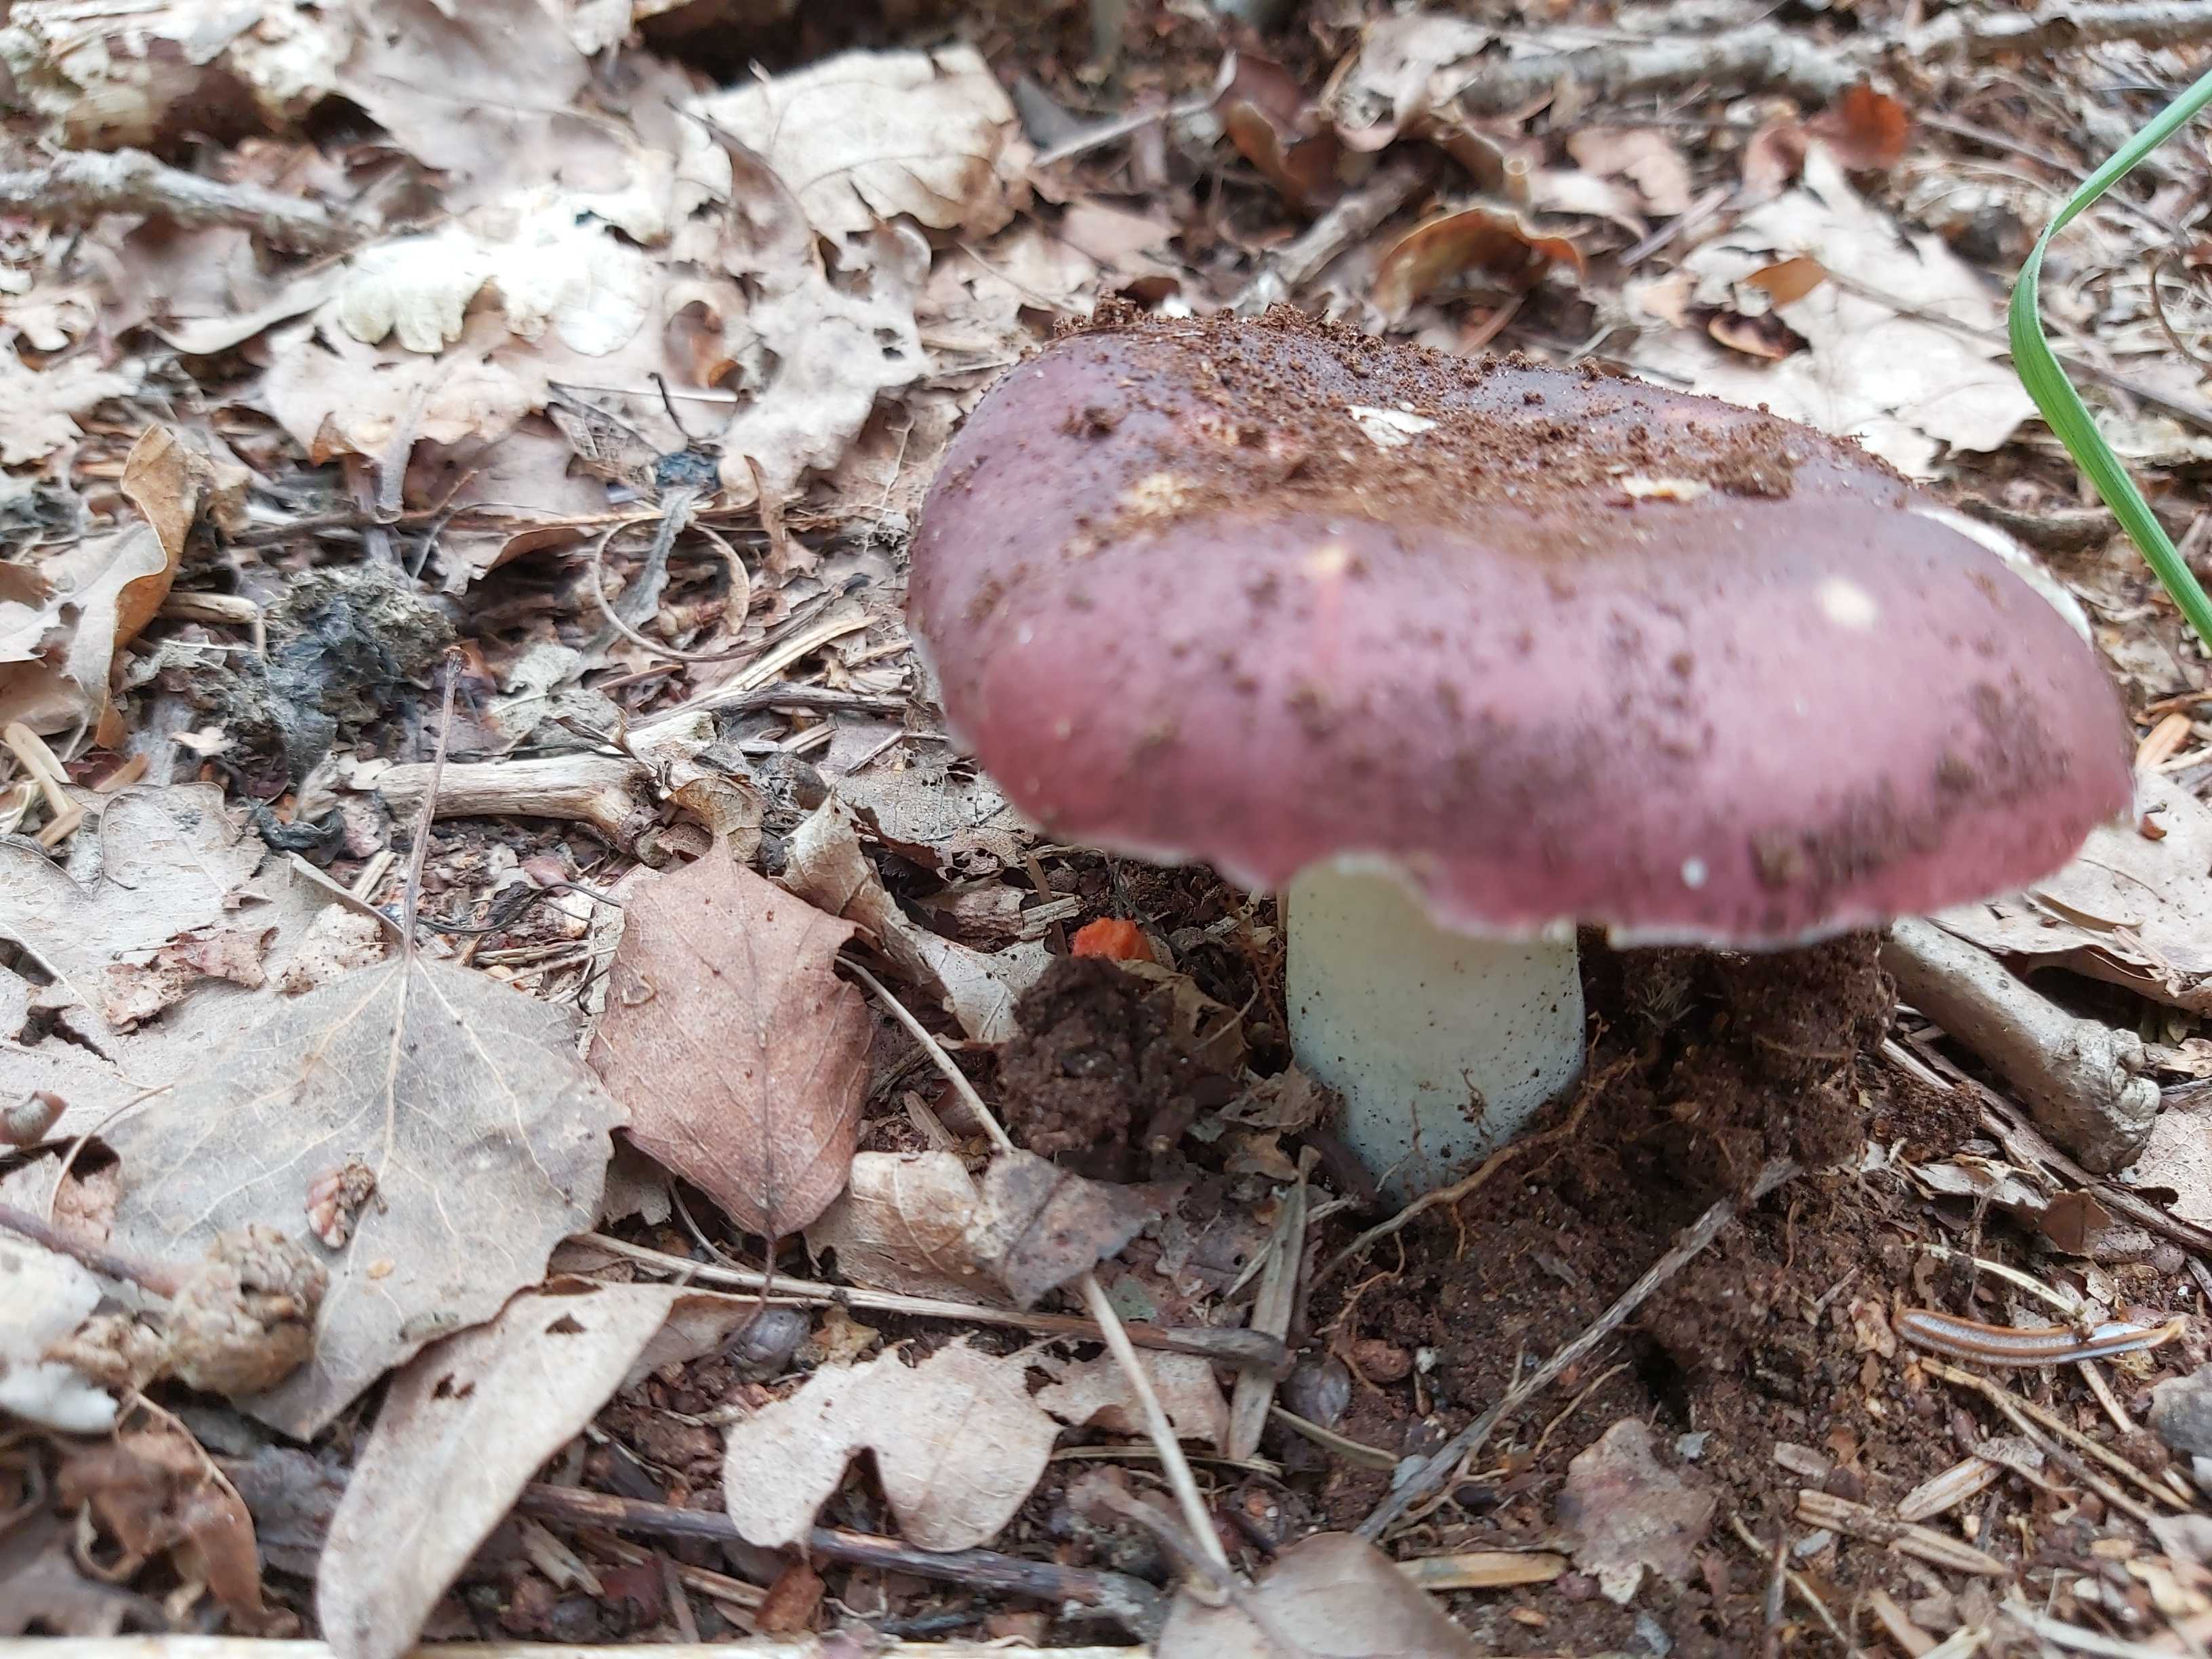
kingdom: Fungi
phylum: Basidiomycota
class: Agaricomycetes
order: Russulales
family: Russulaceae
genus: Russula
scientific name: Russula
